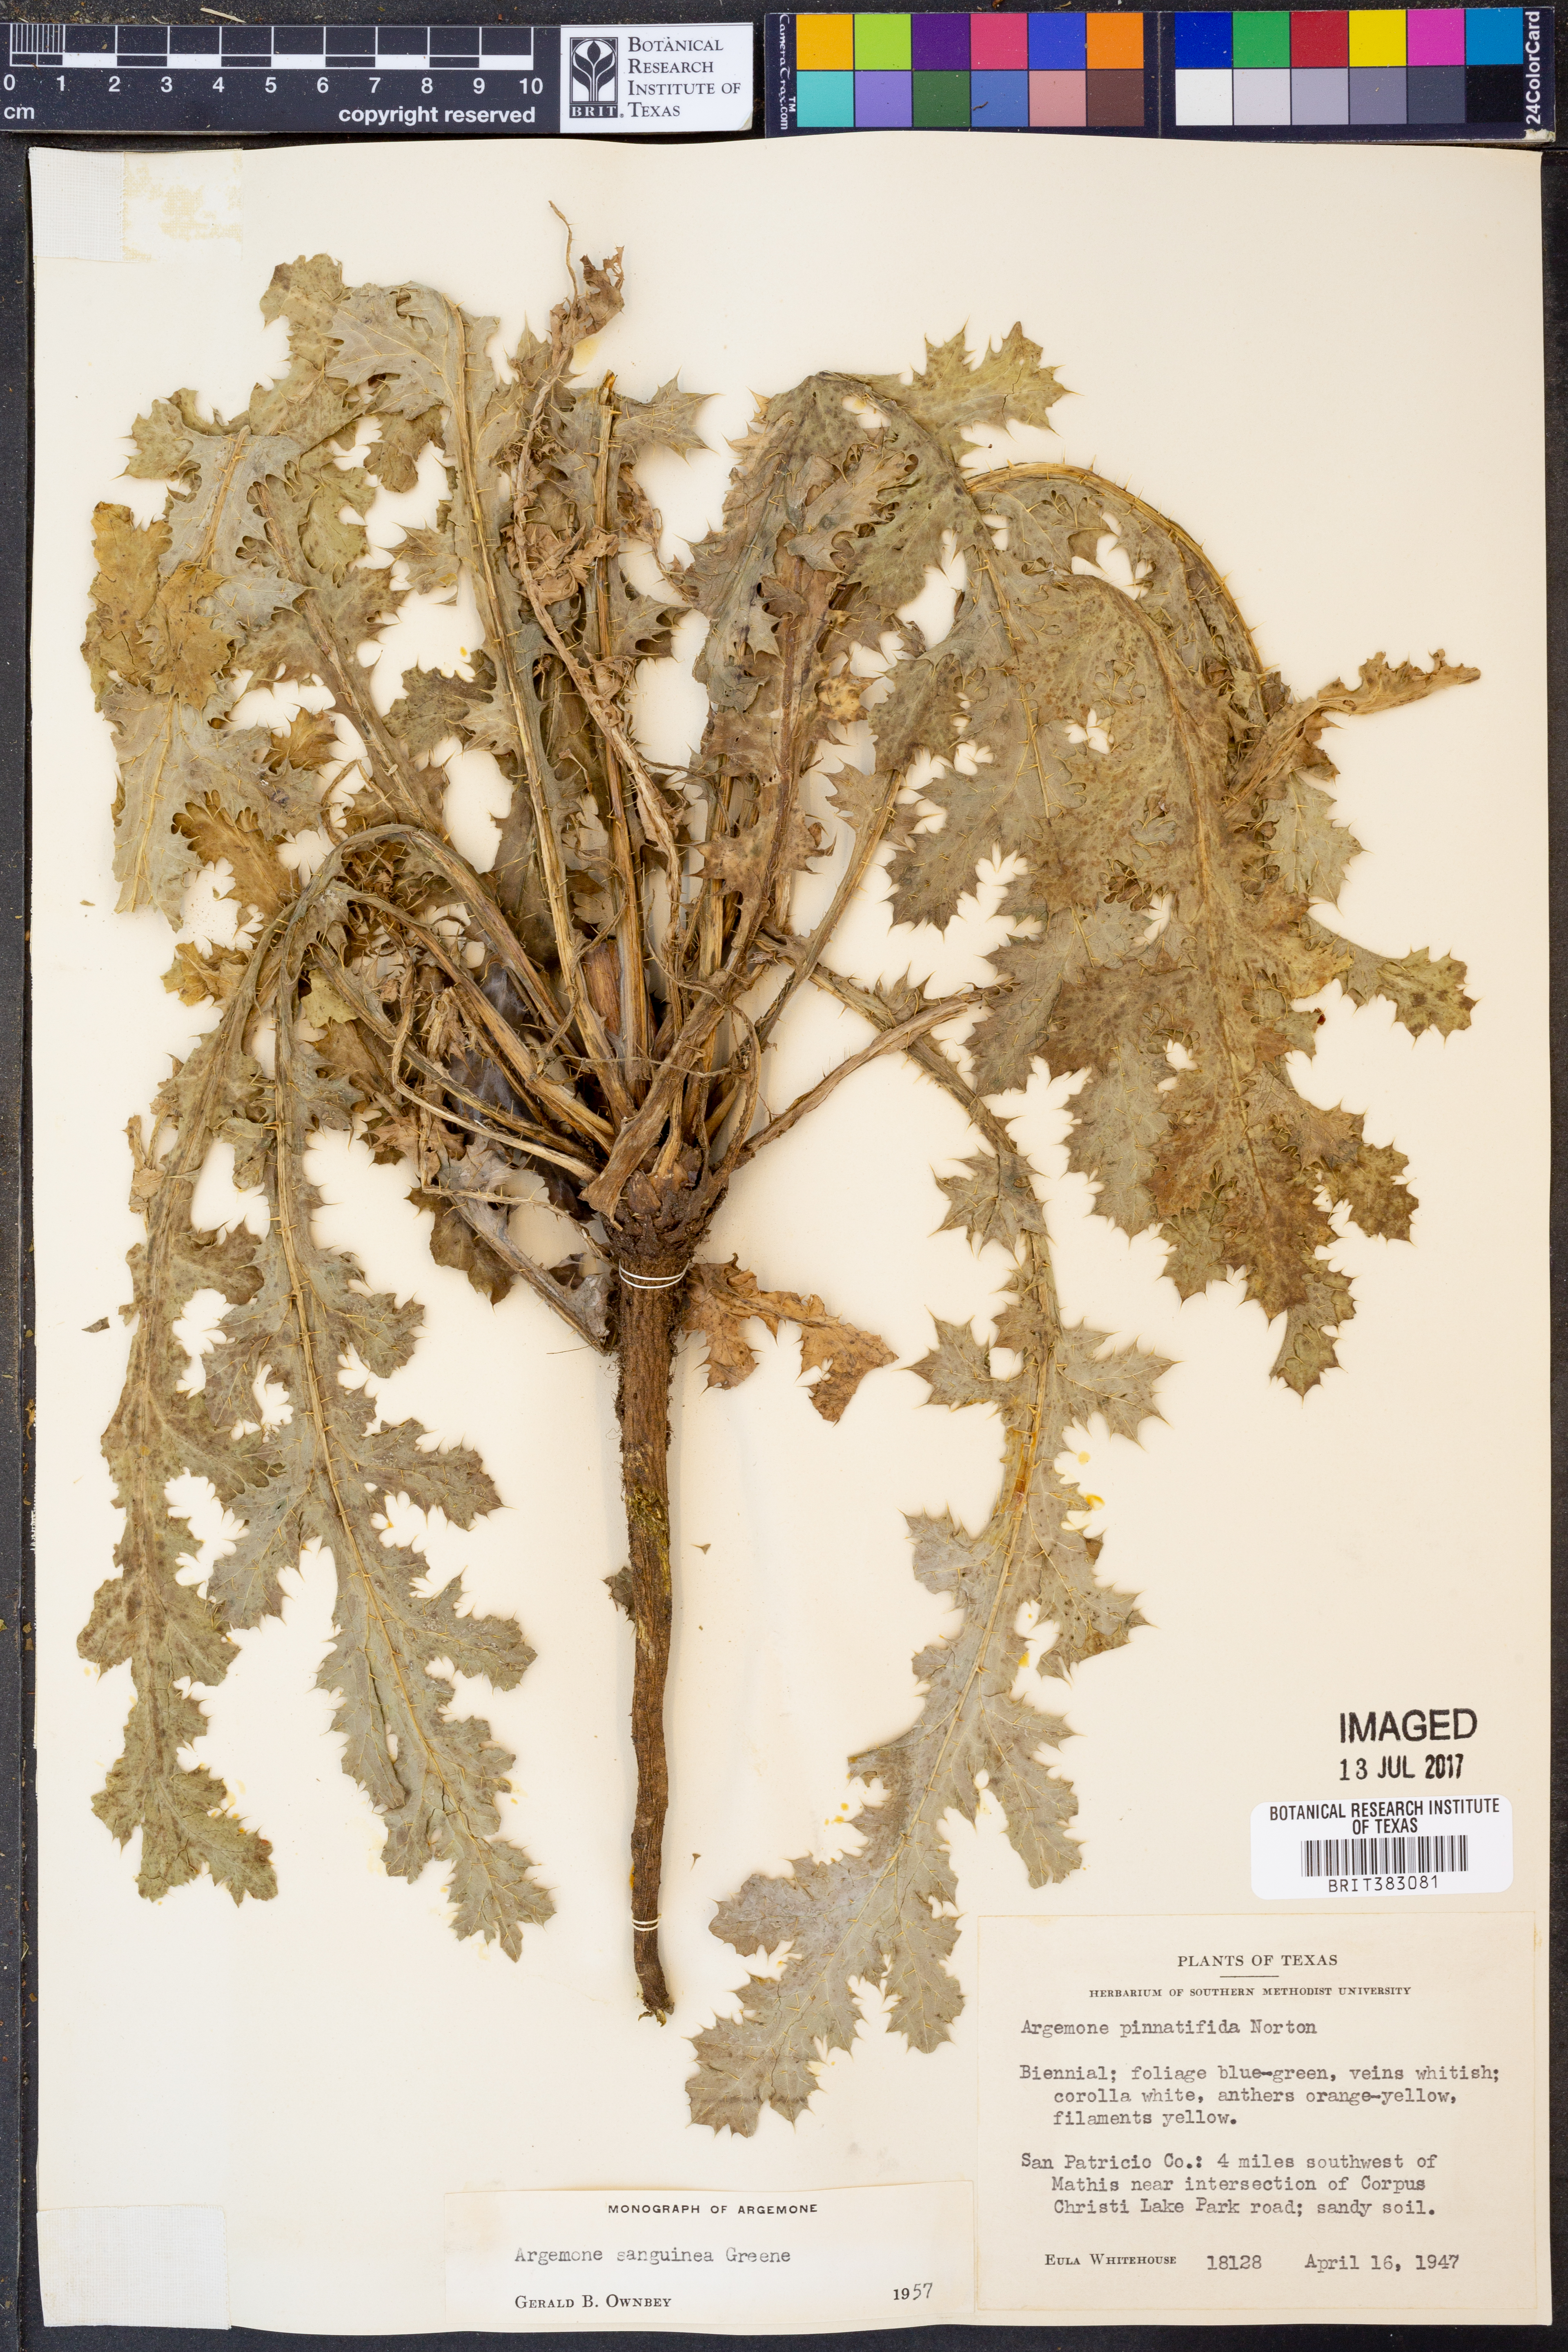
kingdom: Plantae
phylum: Tracheophyta
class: Magnoliopsida
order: Ranunculales
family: Papaveraceae
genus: Argemone
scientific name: Argemone sanguinea
